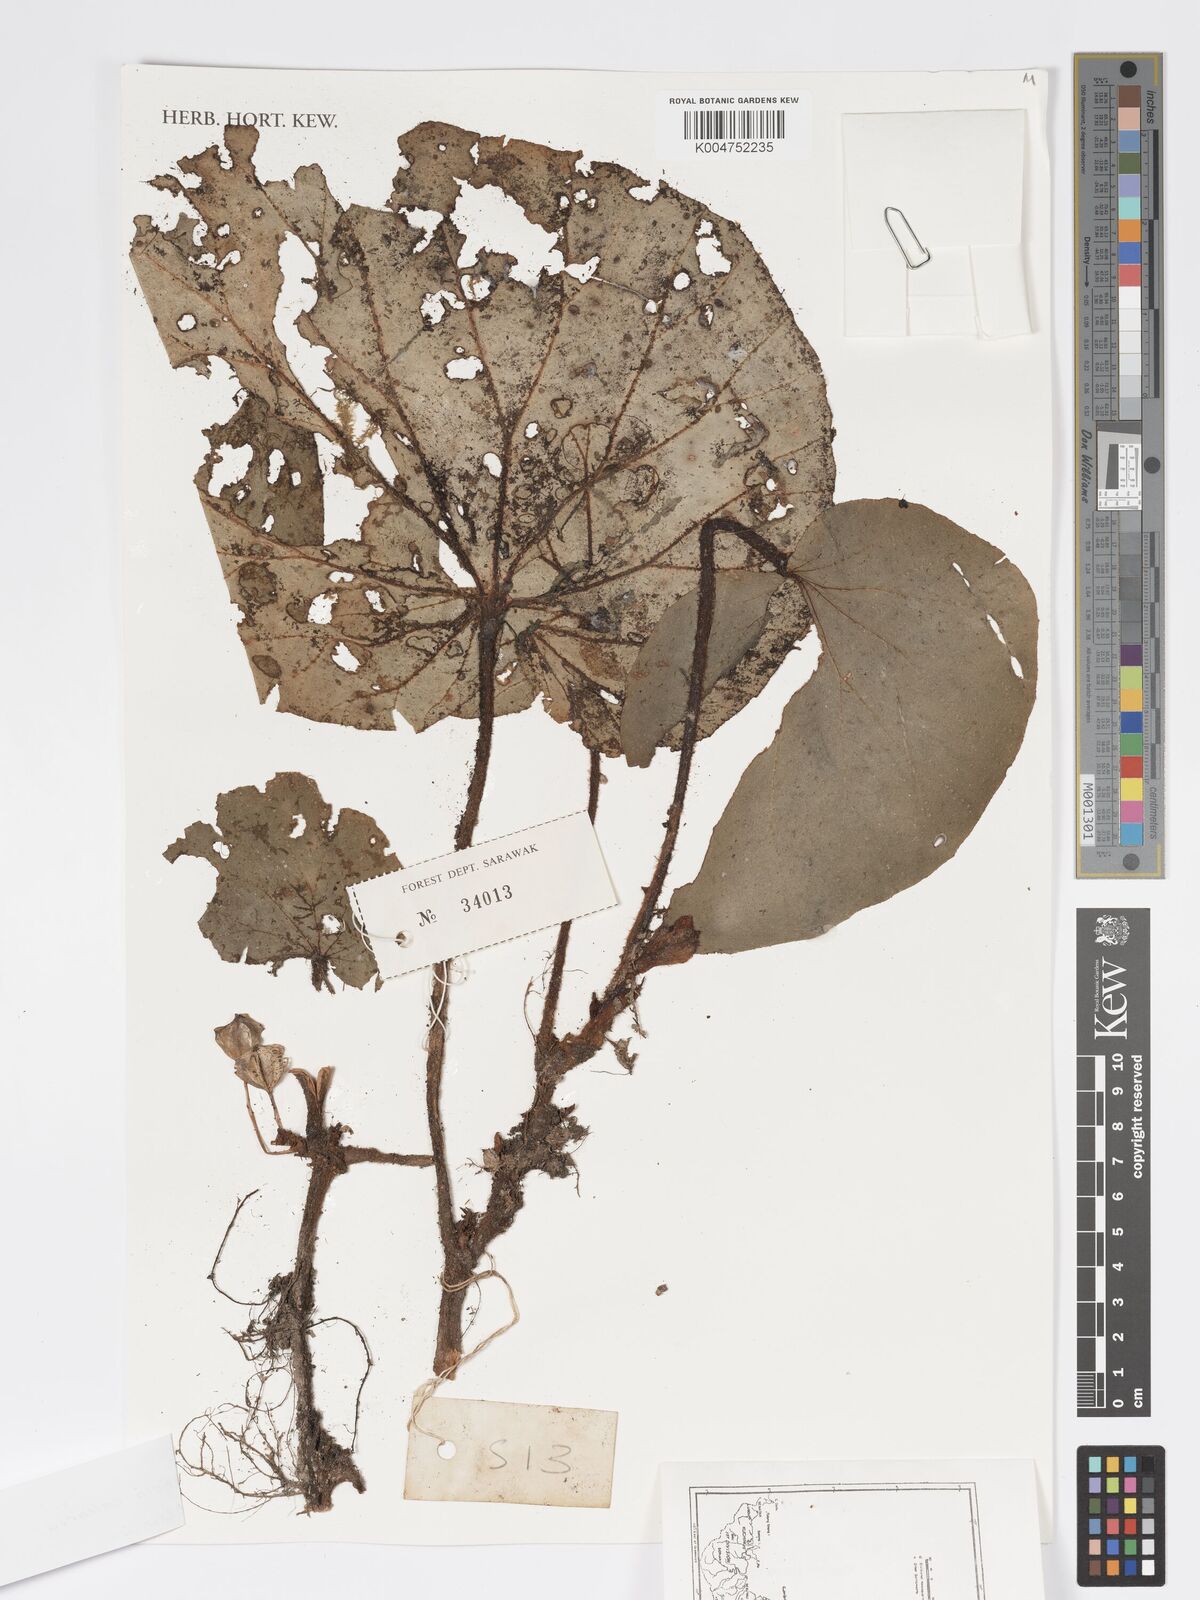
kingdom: Plantae
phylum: Tracheophyta
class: Magnoliopsida
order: Cucurbitales
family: Begoniaceae
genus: Begonia
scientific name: Begonia
